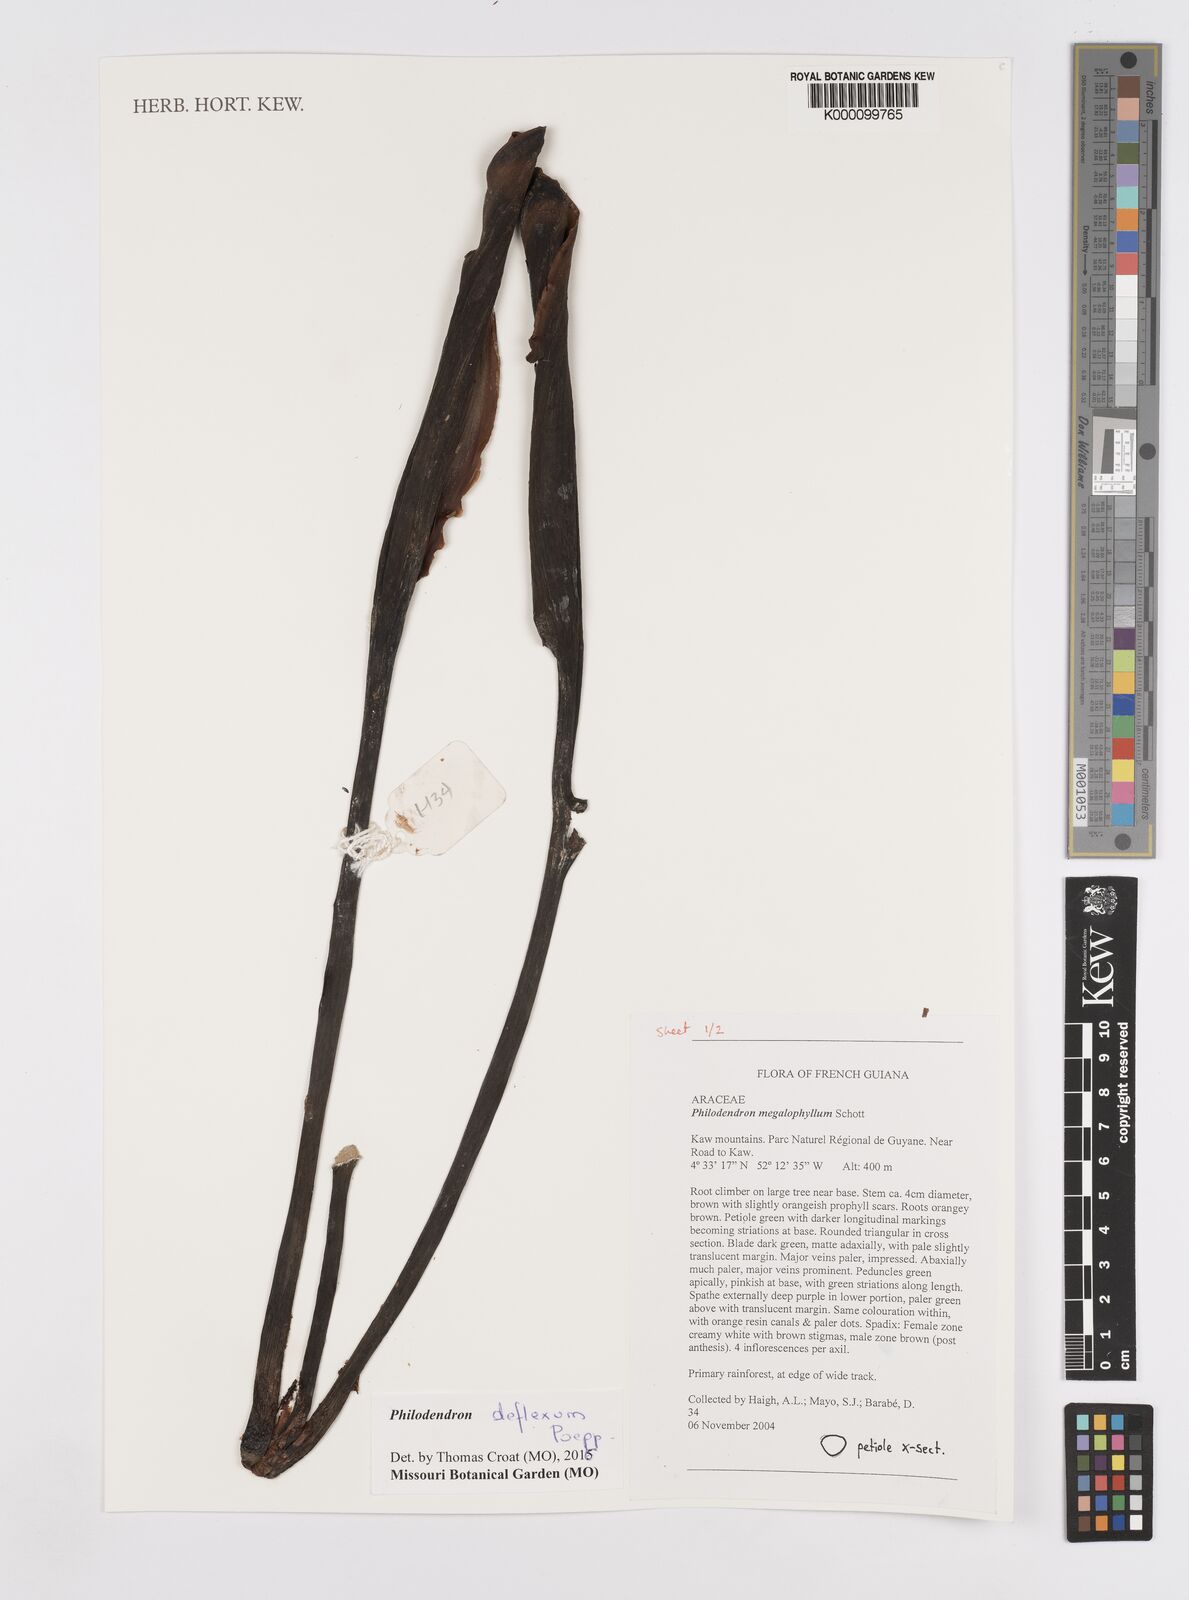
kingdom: Plantae
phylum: Tracheophyta
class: Liliopsida
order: Alismatales
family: Araceae
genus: Philodendron
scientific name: Philodendron megalophyllum
